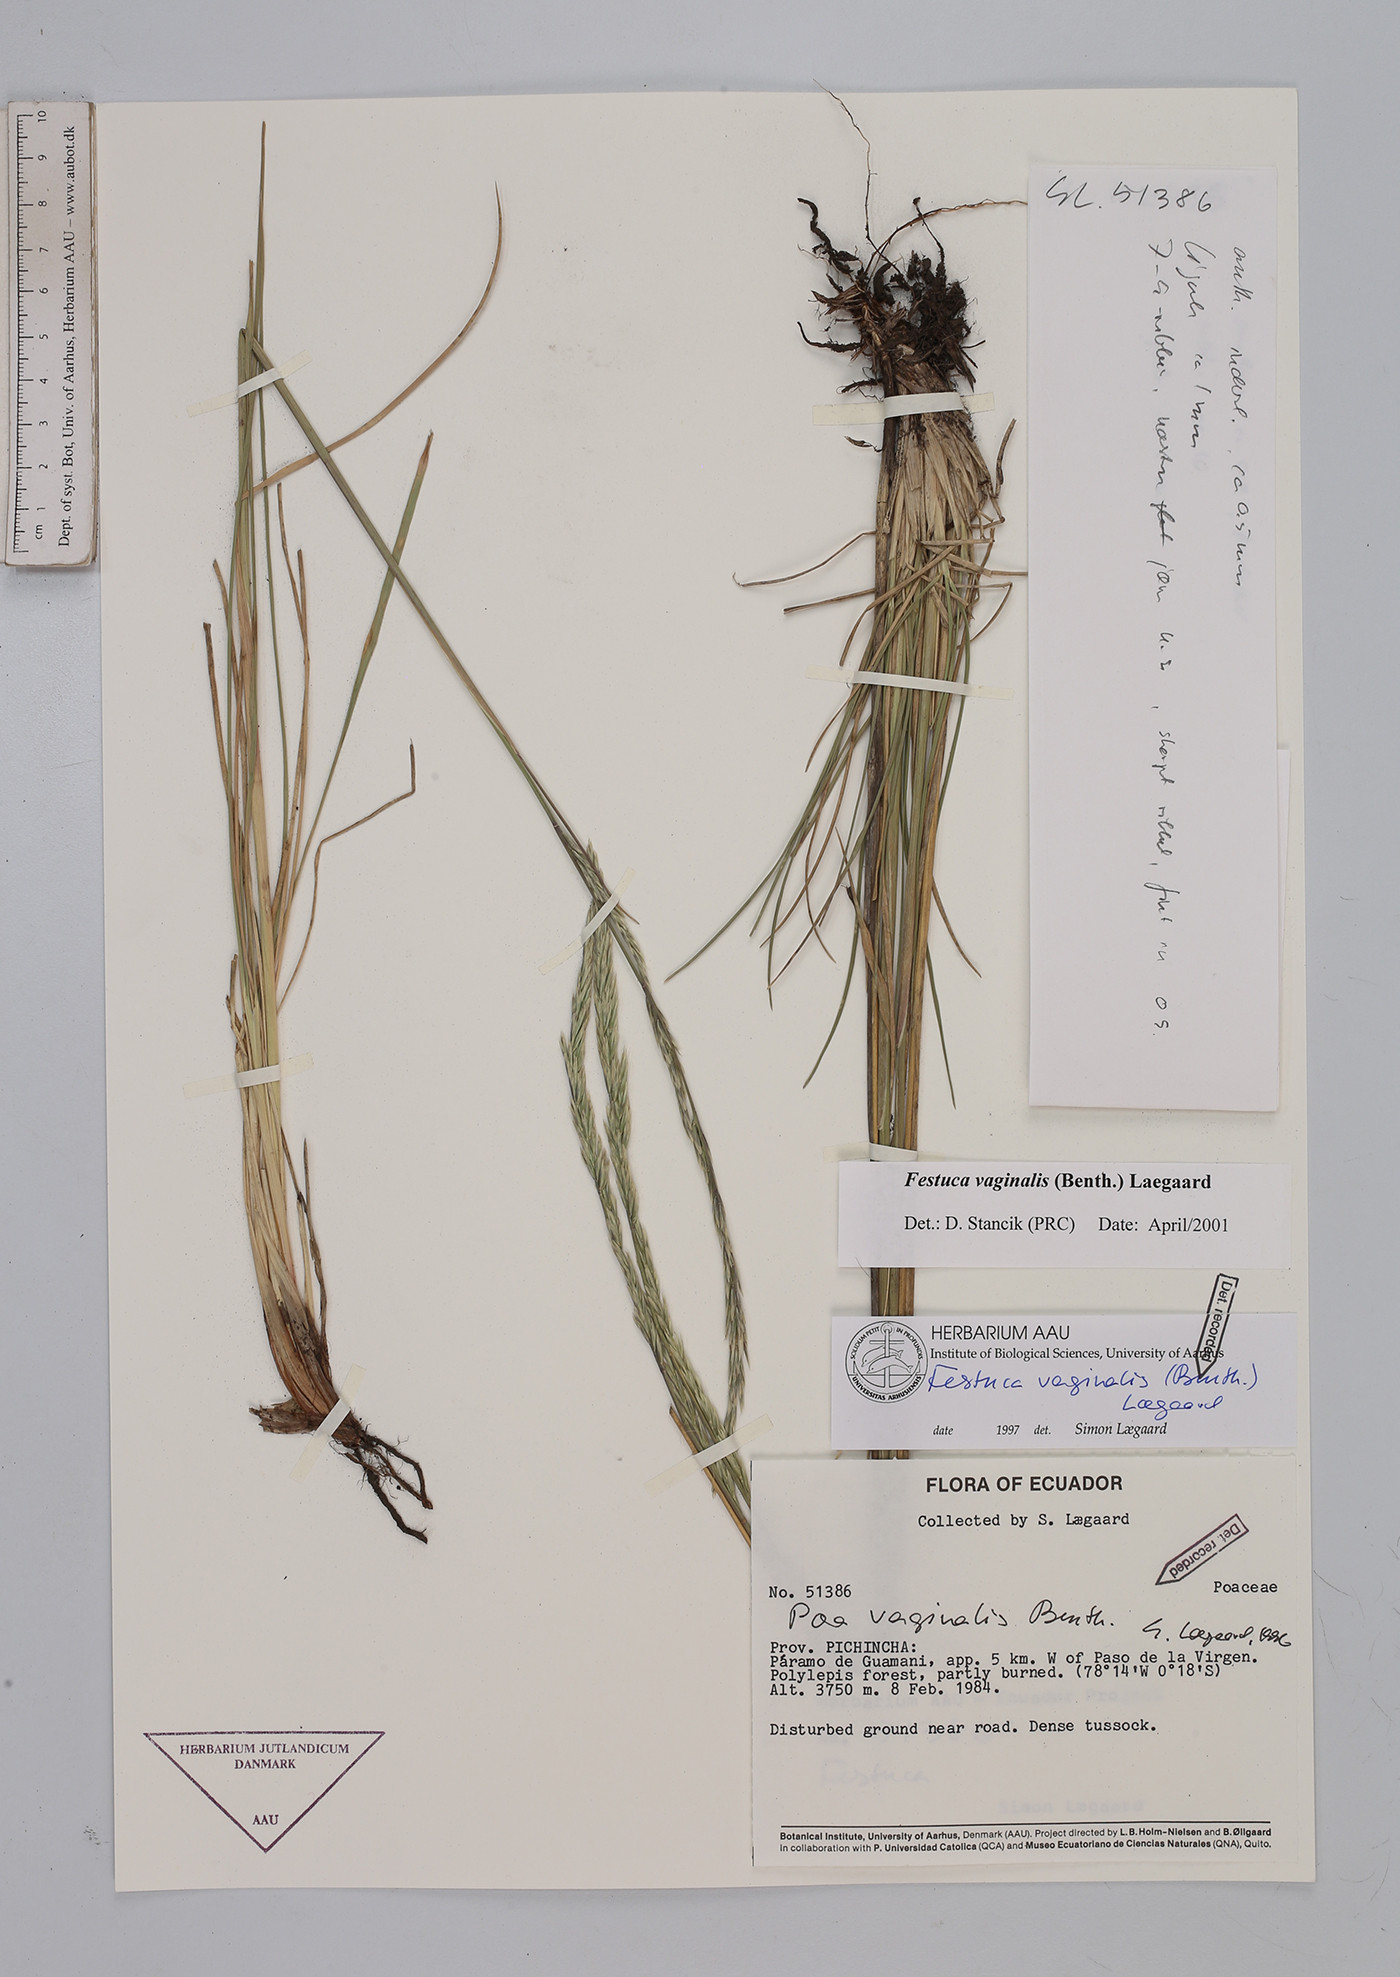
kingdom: Plantae
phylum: Tracheophyta
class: Liliopsida
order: Poales
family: Poaceae
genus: Festuca
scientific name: Festuca vaginalis
